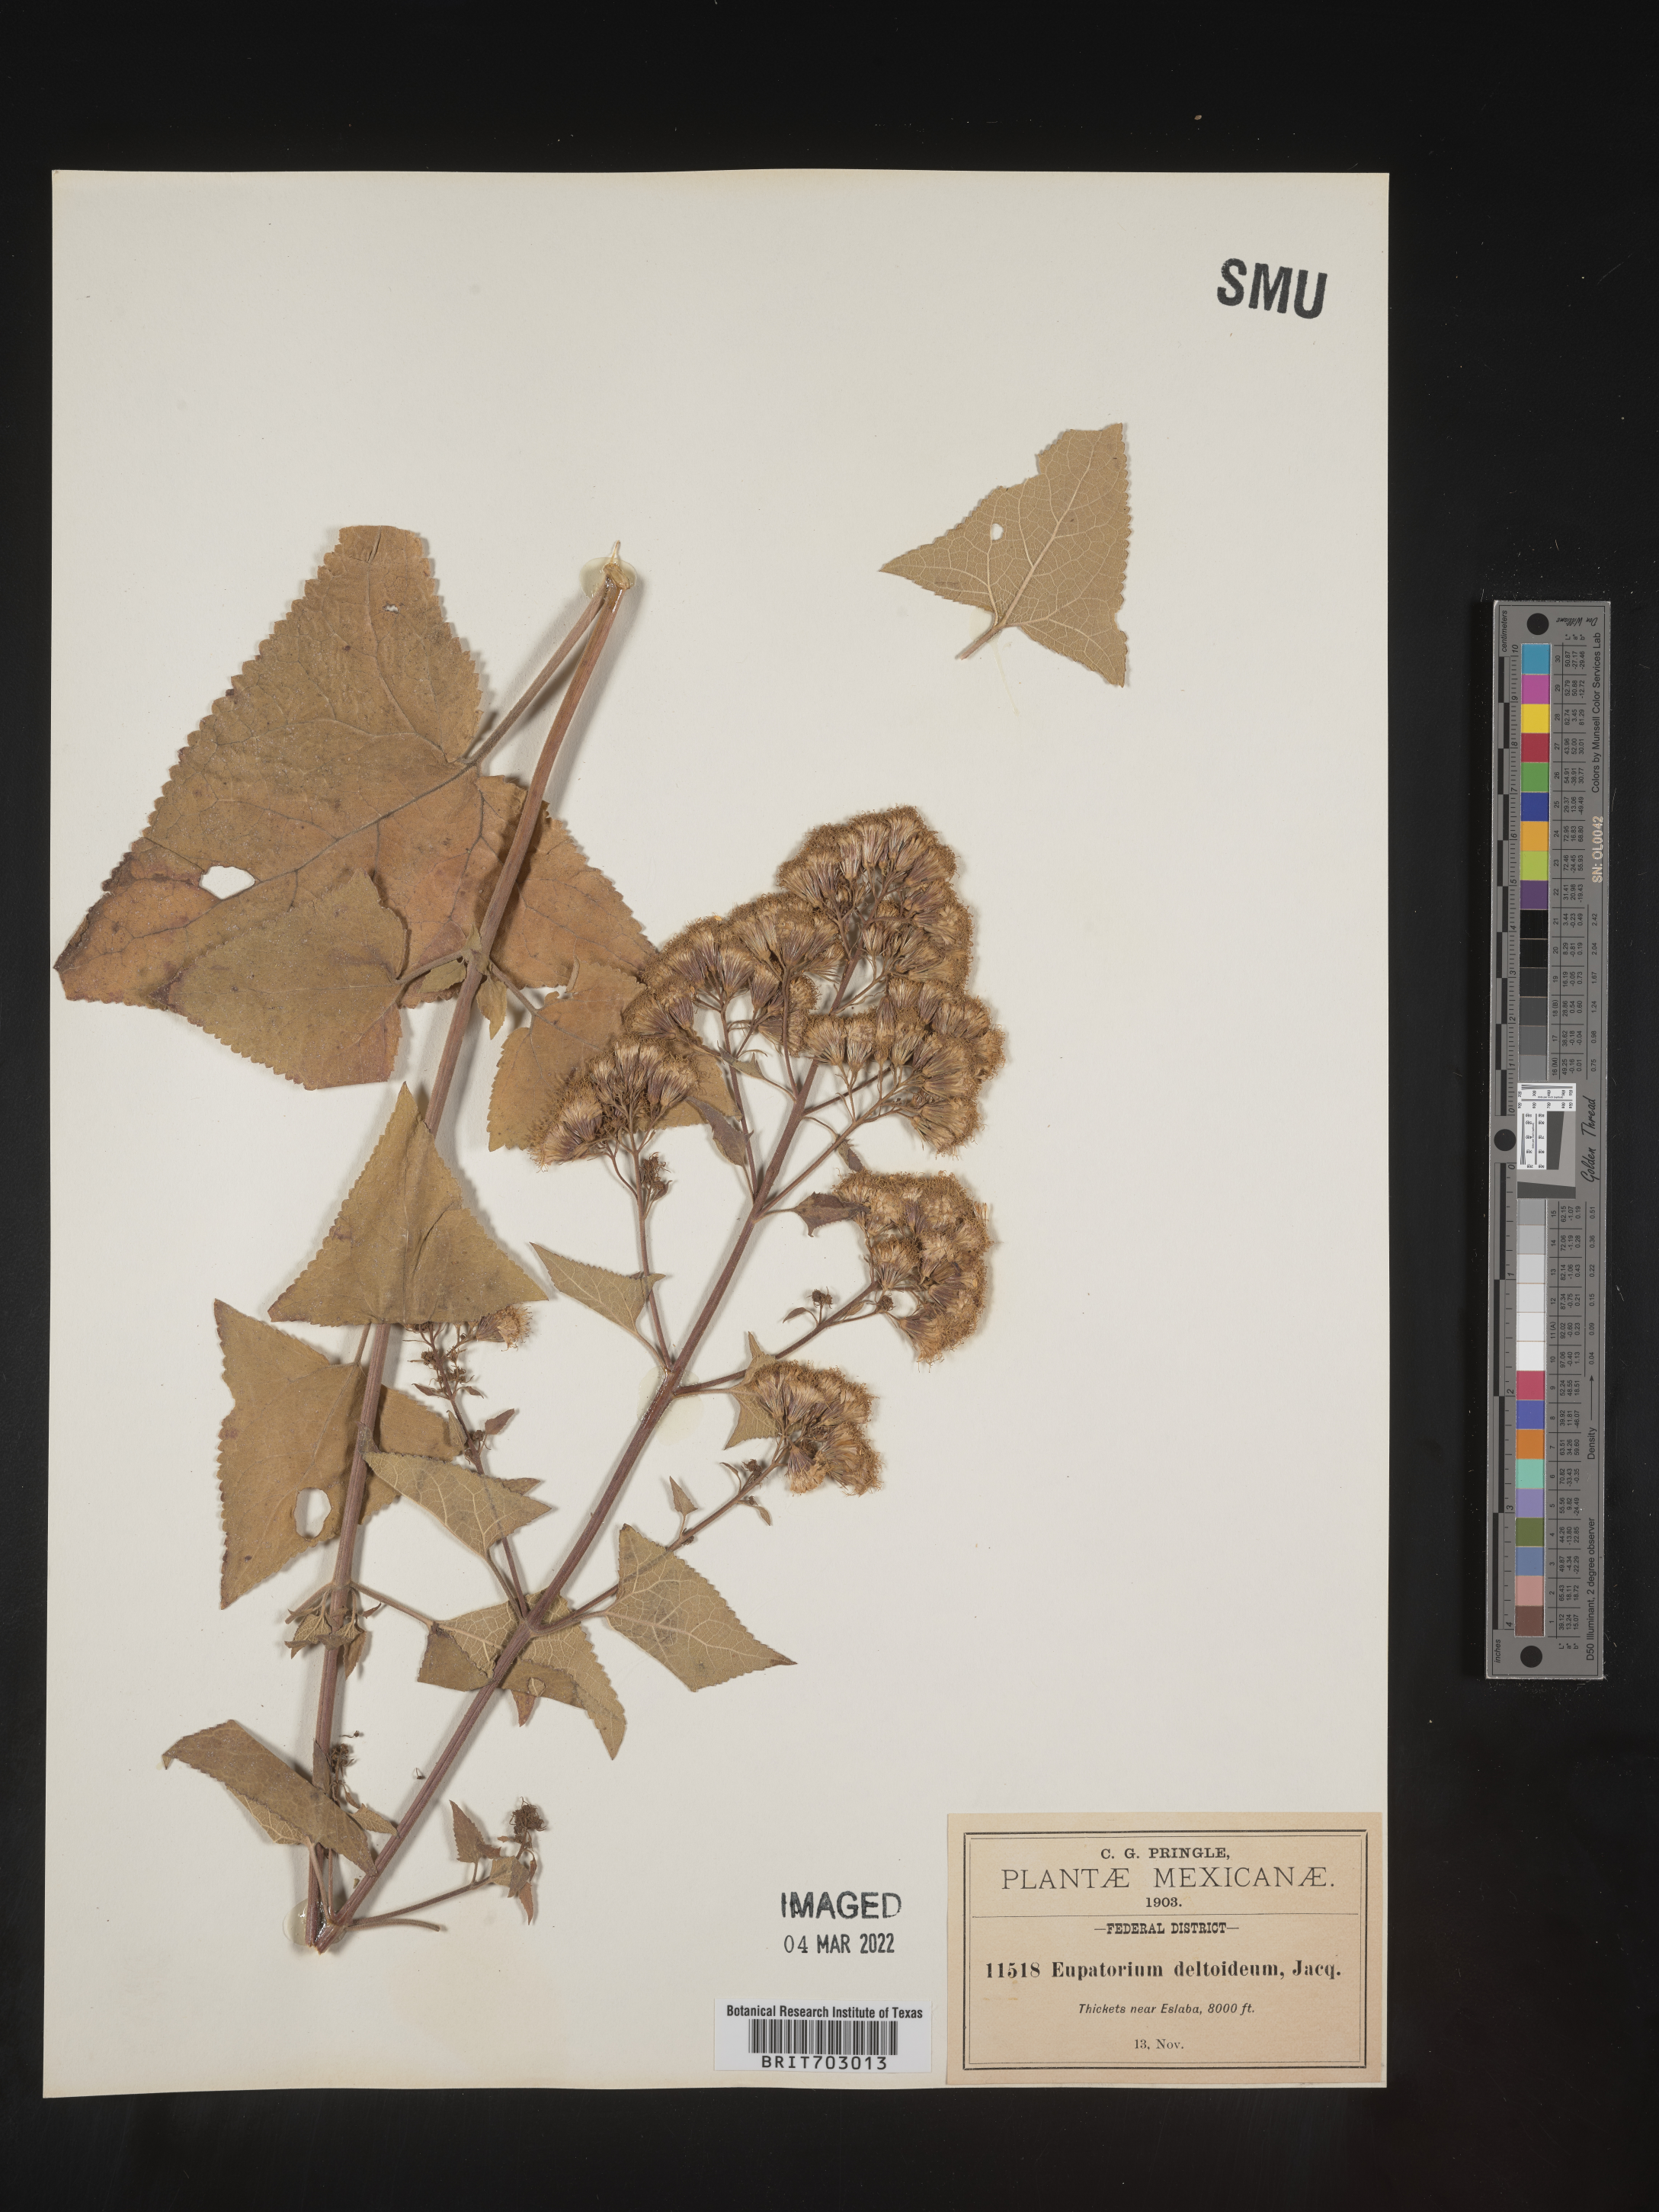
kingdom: Plantae
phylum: Tracheophyta
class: Magnoliopsida
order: Asterales
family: Asteraceae
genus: Eupatorium
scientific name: Eupatorium
